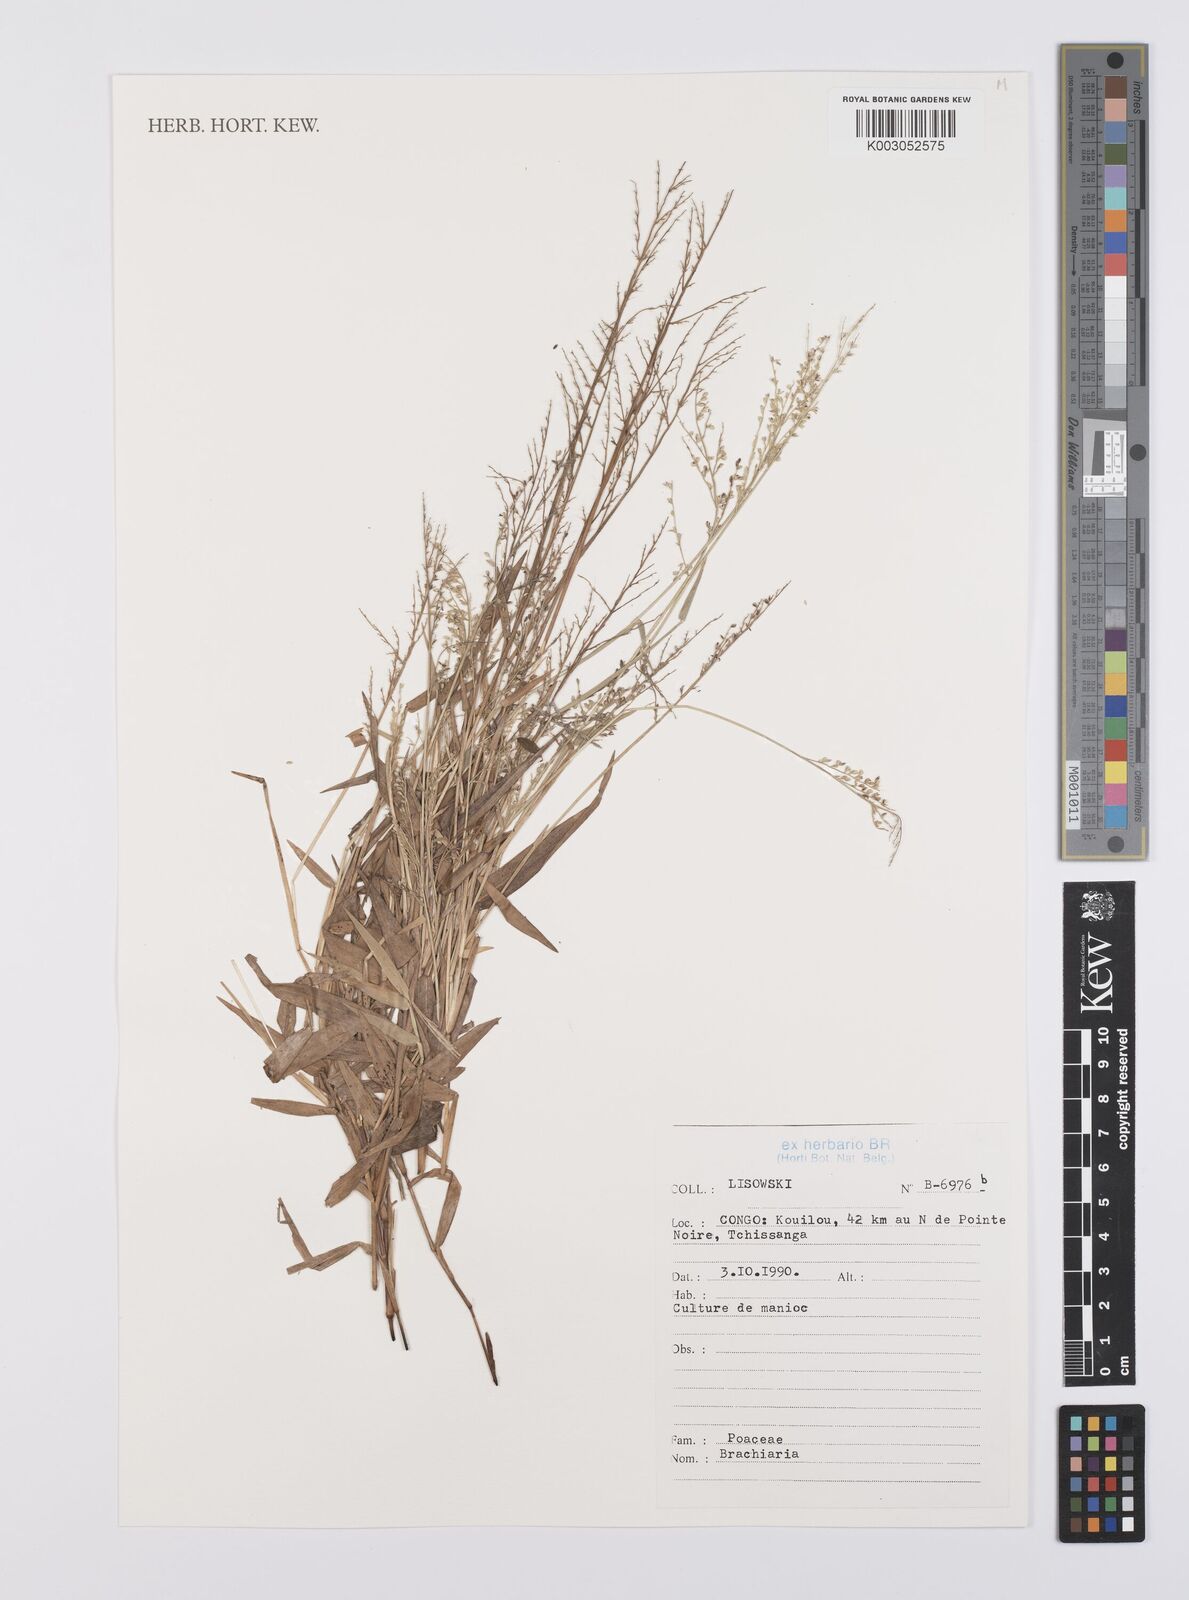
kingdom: Plantae
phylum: Tracheophyta
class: Liliopsida
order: Poales
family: Poaceae
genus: Urochloa
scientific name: Urochloa comata
